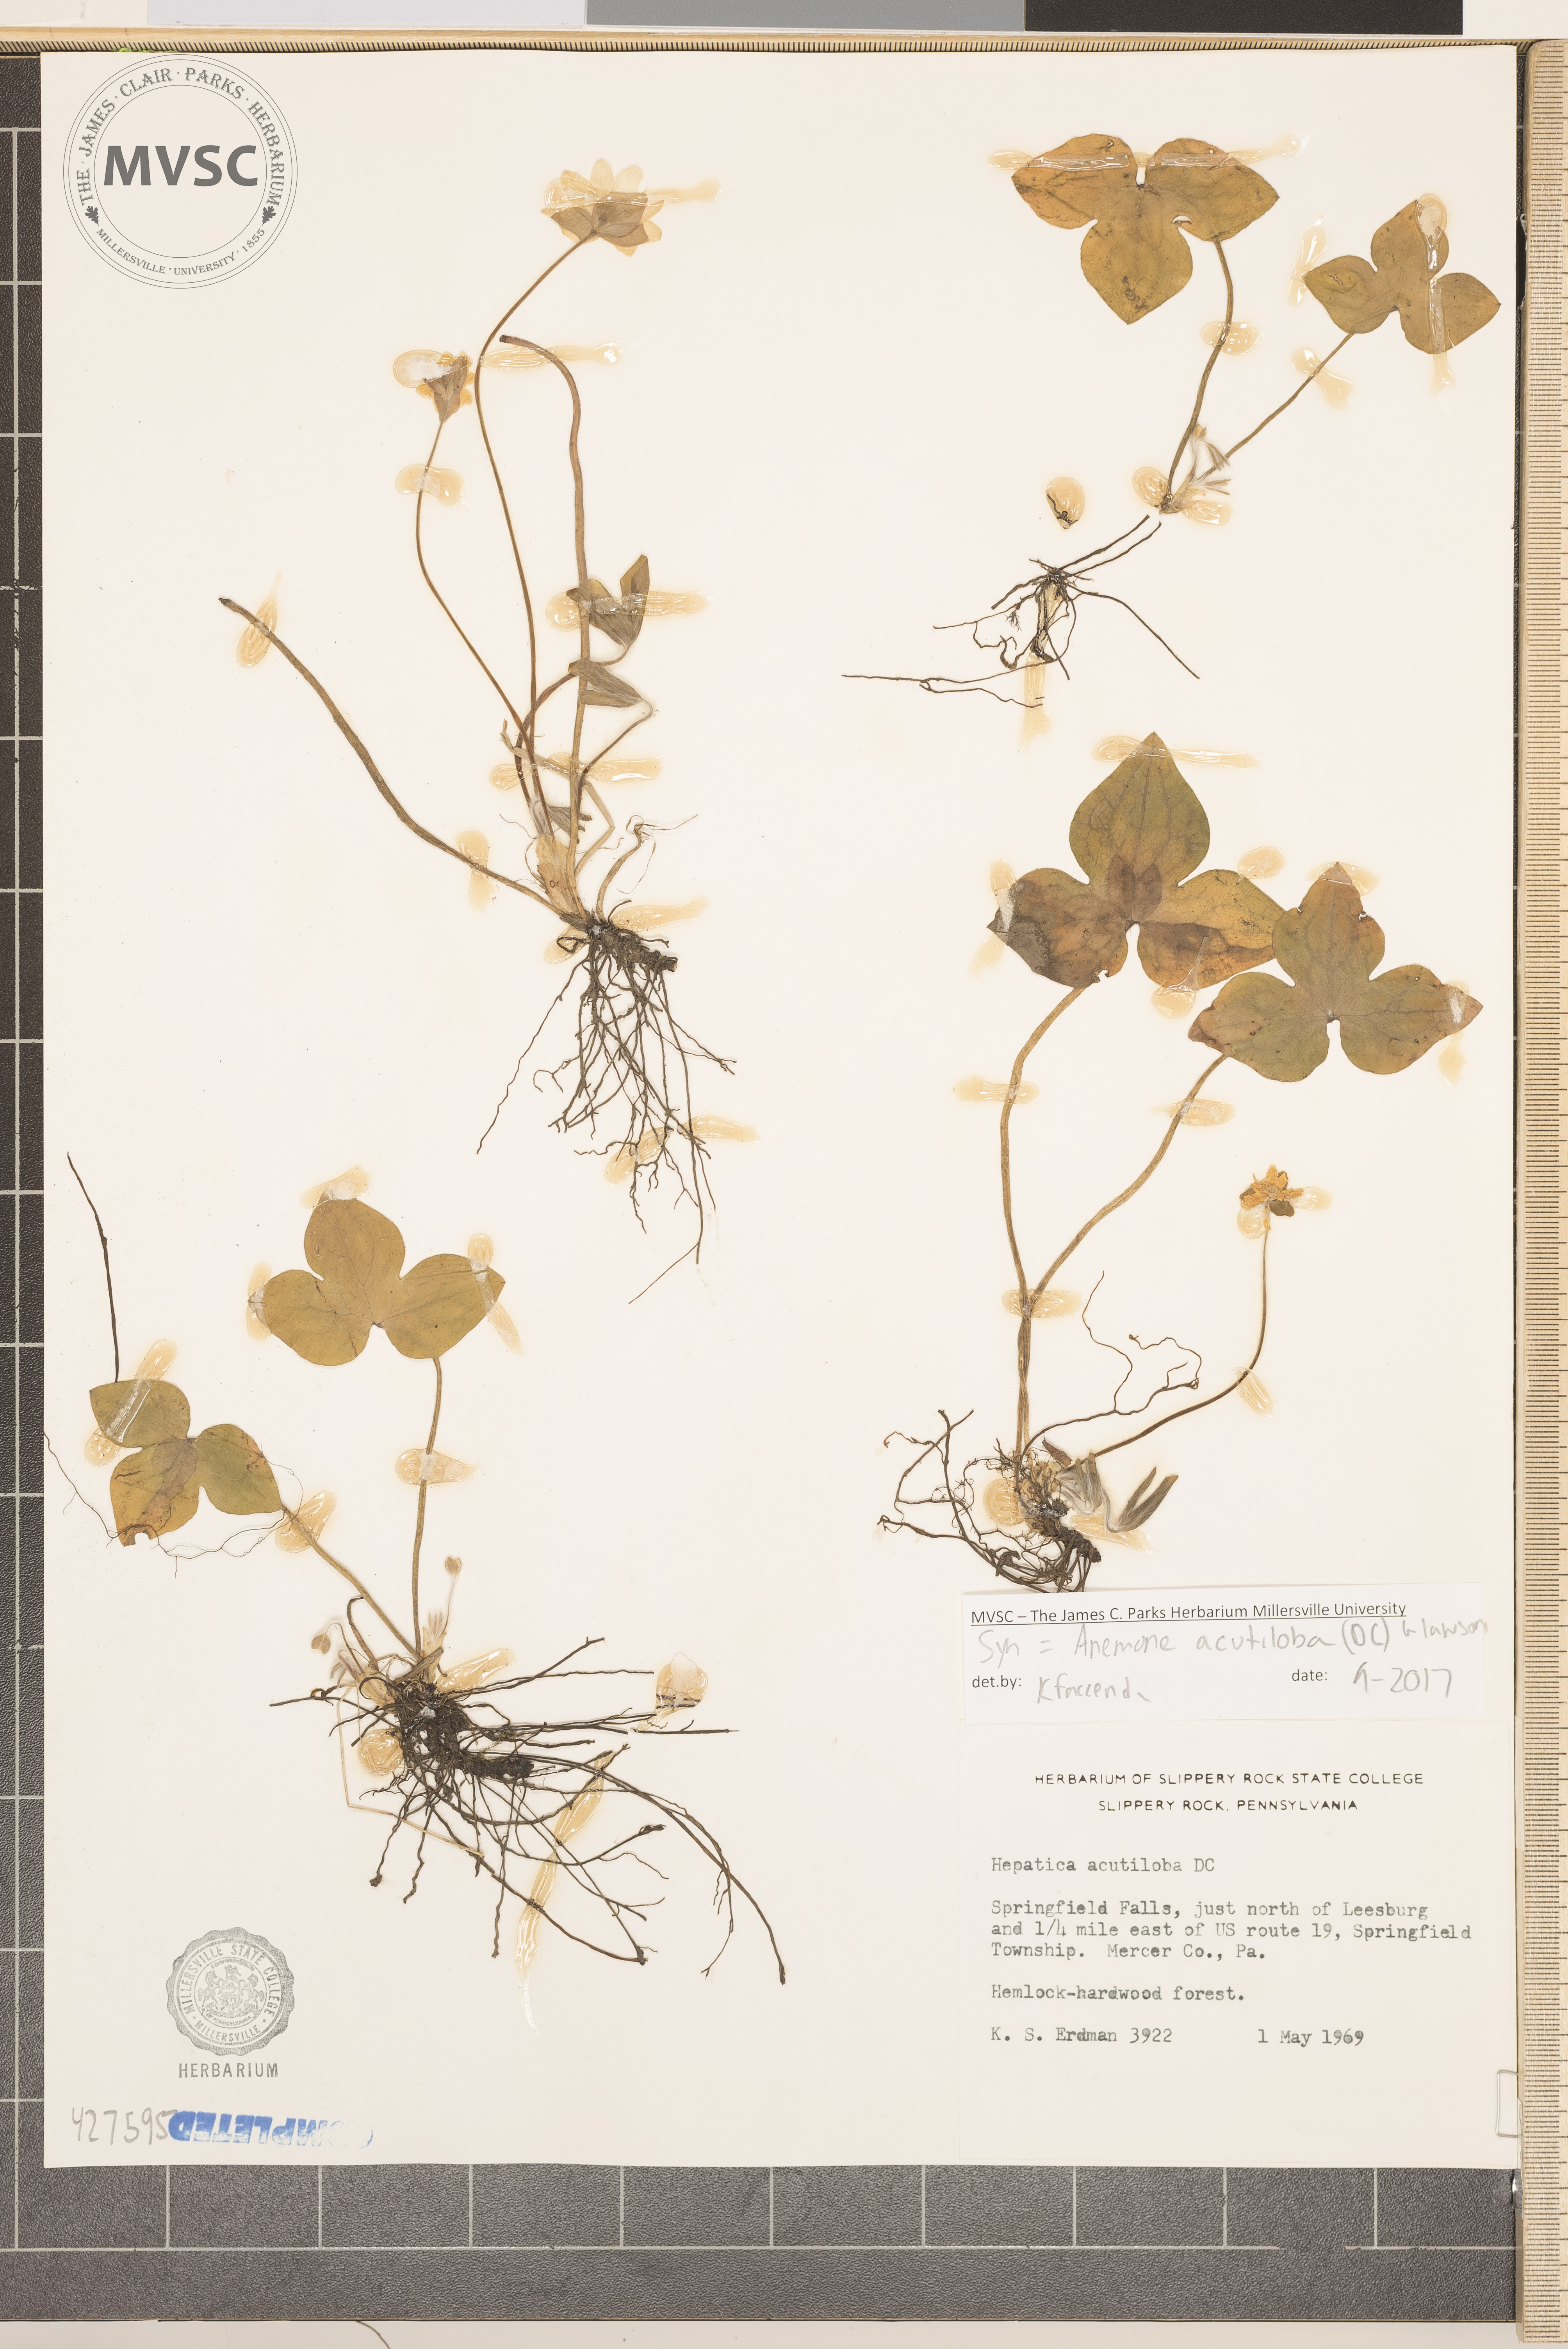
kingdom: Plantae
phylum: Tracheophyta
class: Magnoliopsida
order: Ranunculales
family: Ranunculaceae
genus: Hepatica
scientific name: Hepatica acutiloba
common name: Sharp-lobed hepatica
